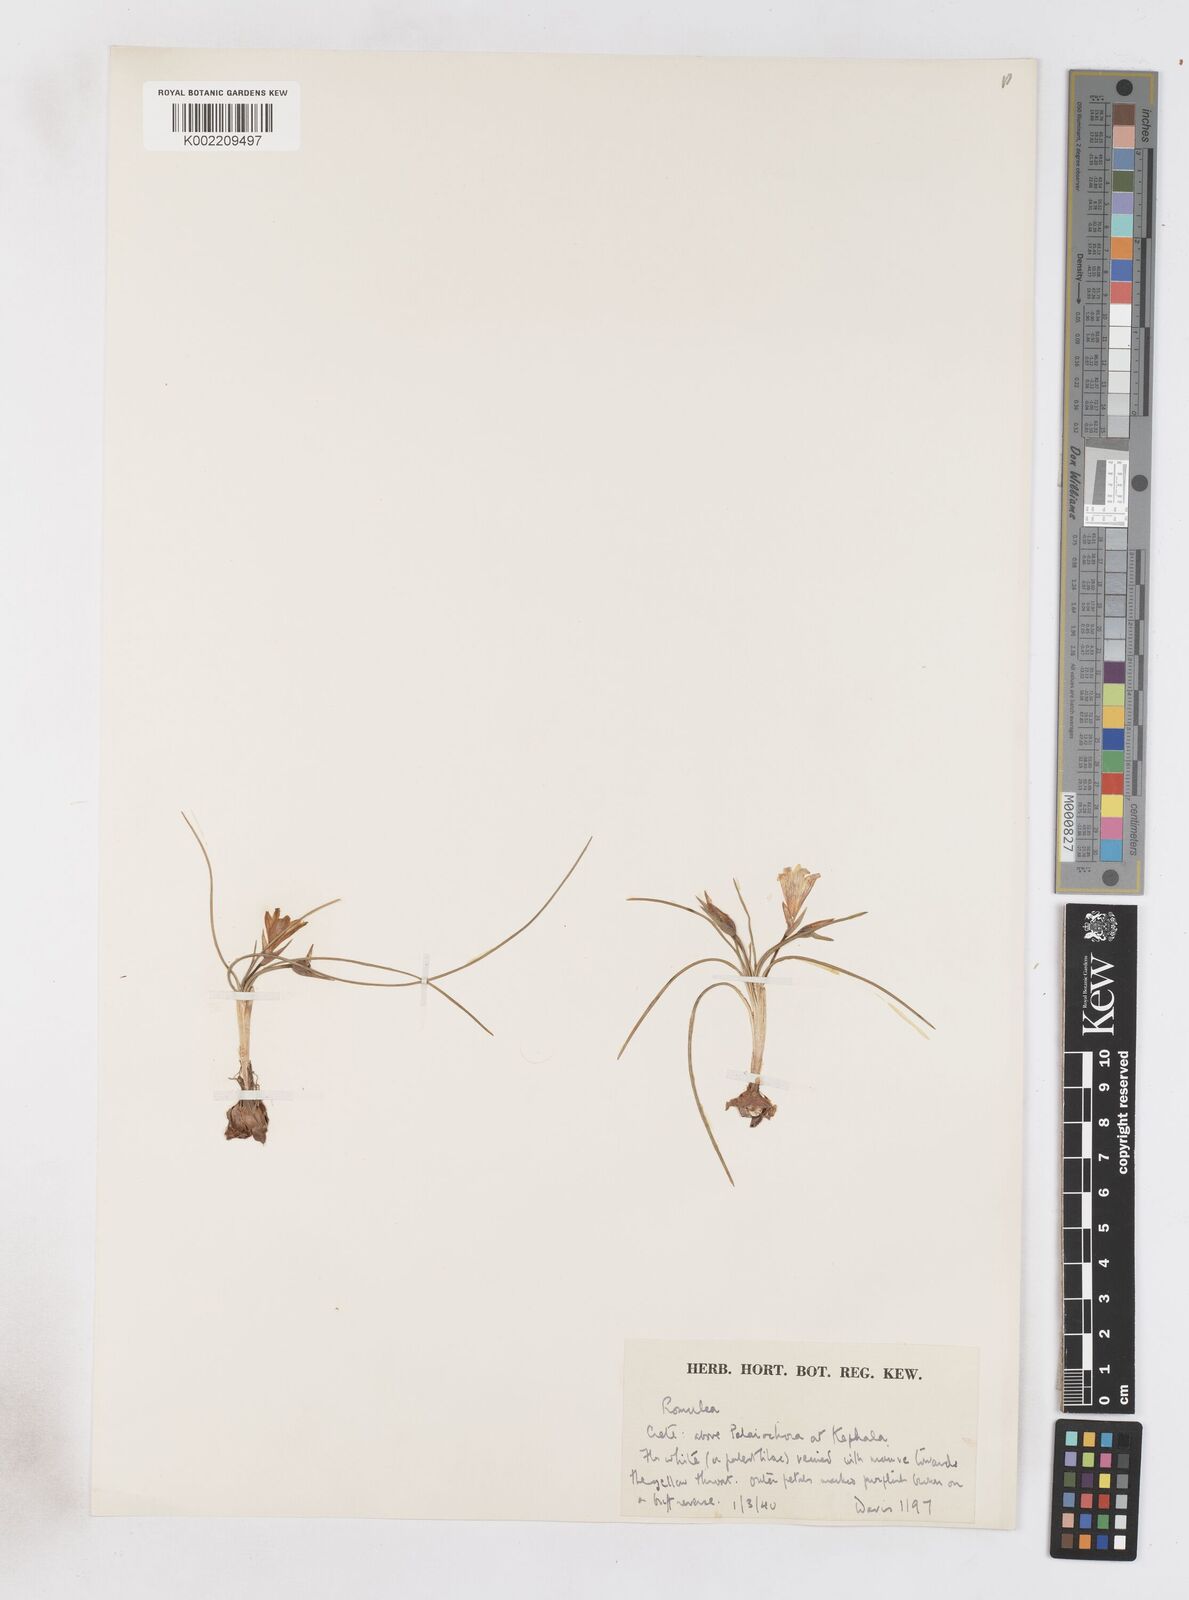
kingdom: Plantae
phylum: Tracheophyta
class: Liliopsida
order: Asparagales
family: Iridaceae
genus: Romulea
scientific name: Romulea bulbocodium
